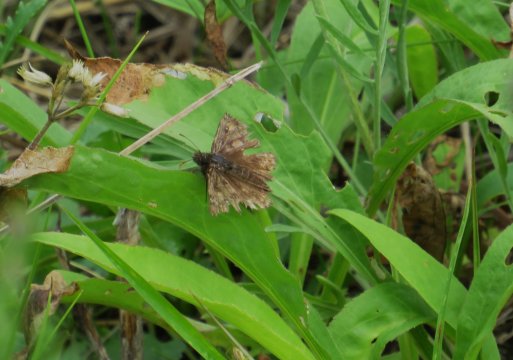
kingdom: Animalia
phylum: Arthropoda
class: Insecta
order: Lepidoptera
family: Hesperiidae
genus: Gesta
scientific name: Gesta
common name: Juvenal's Duskywing
